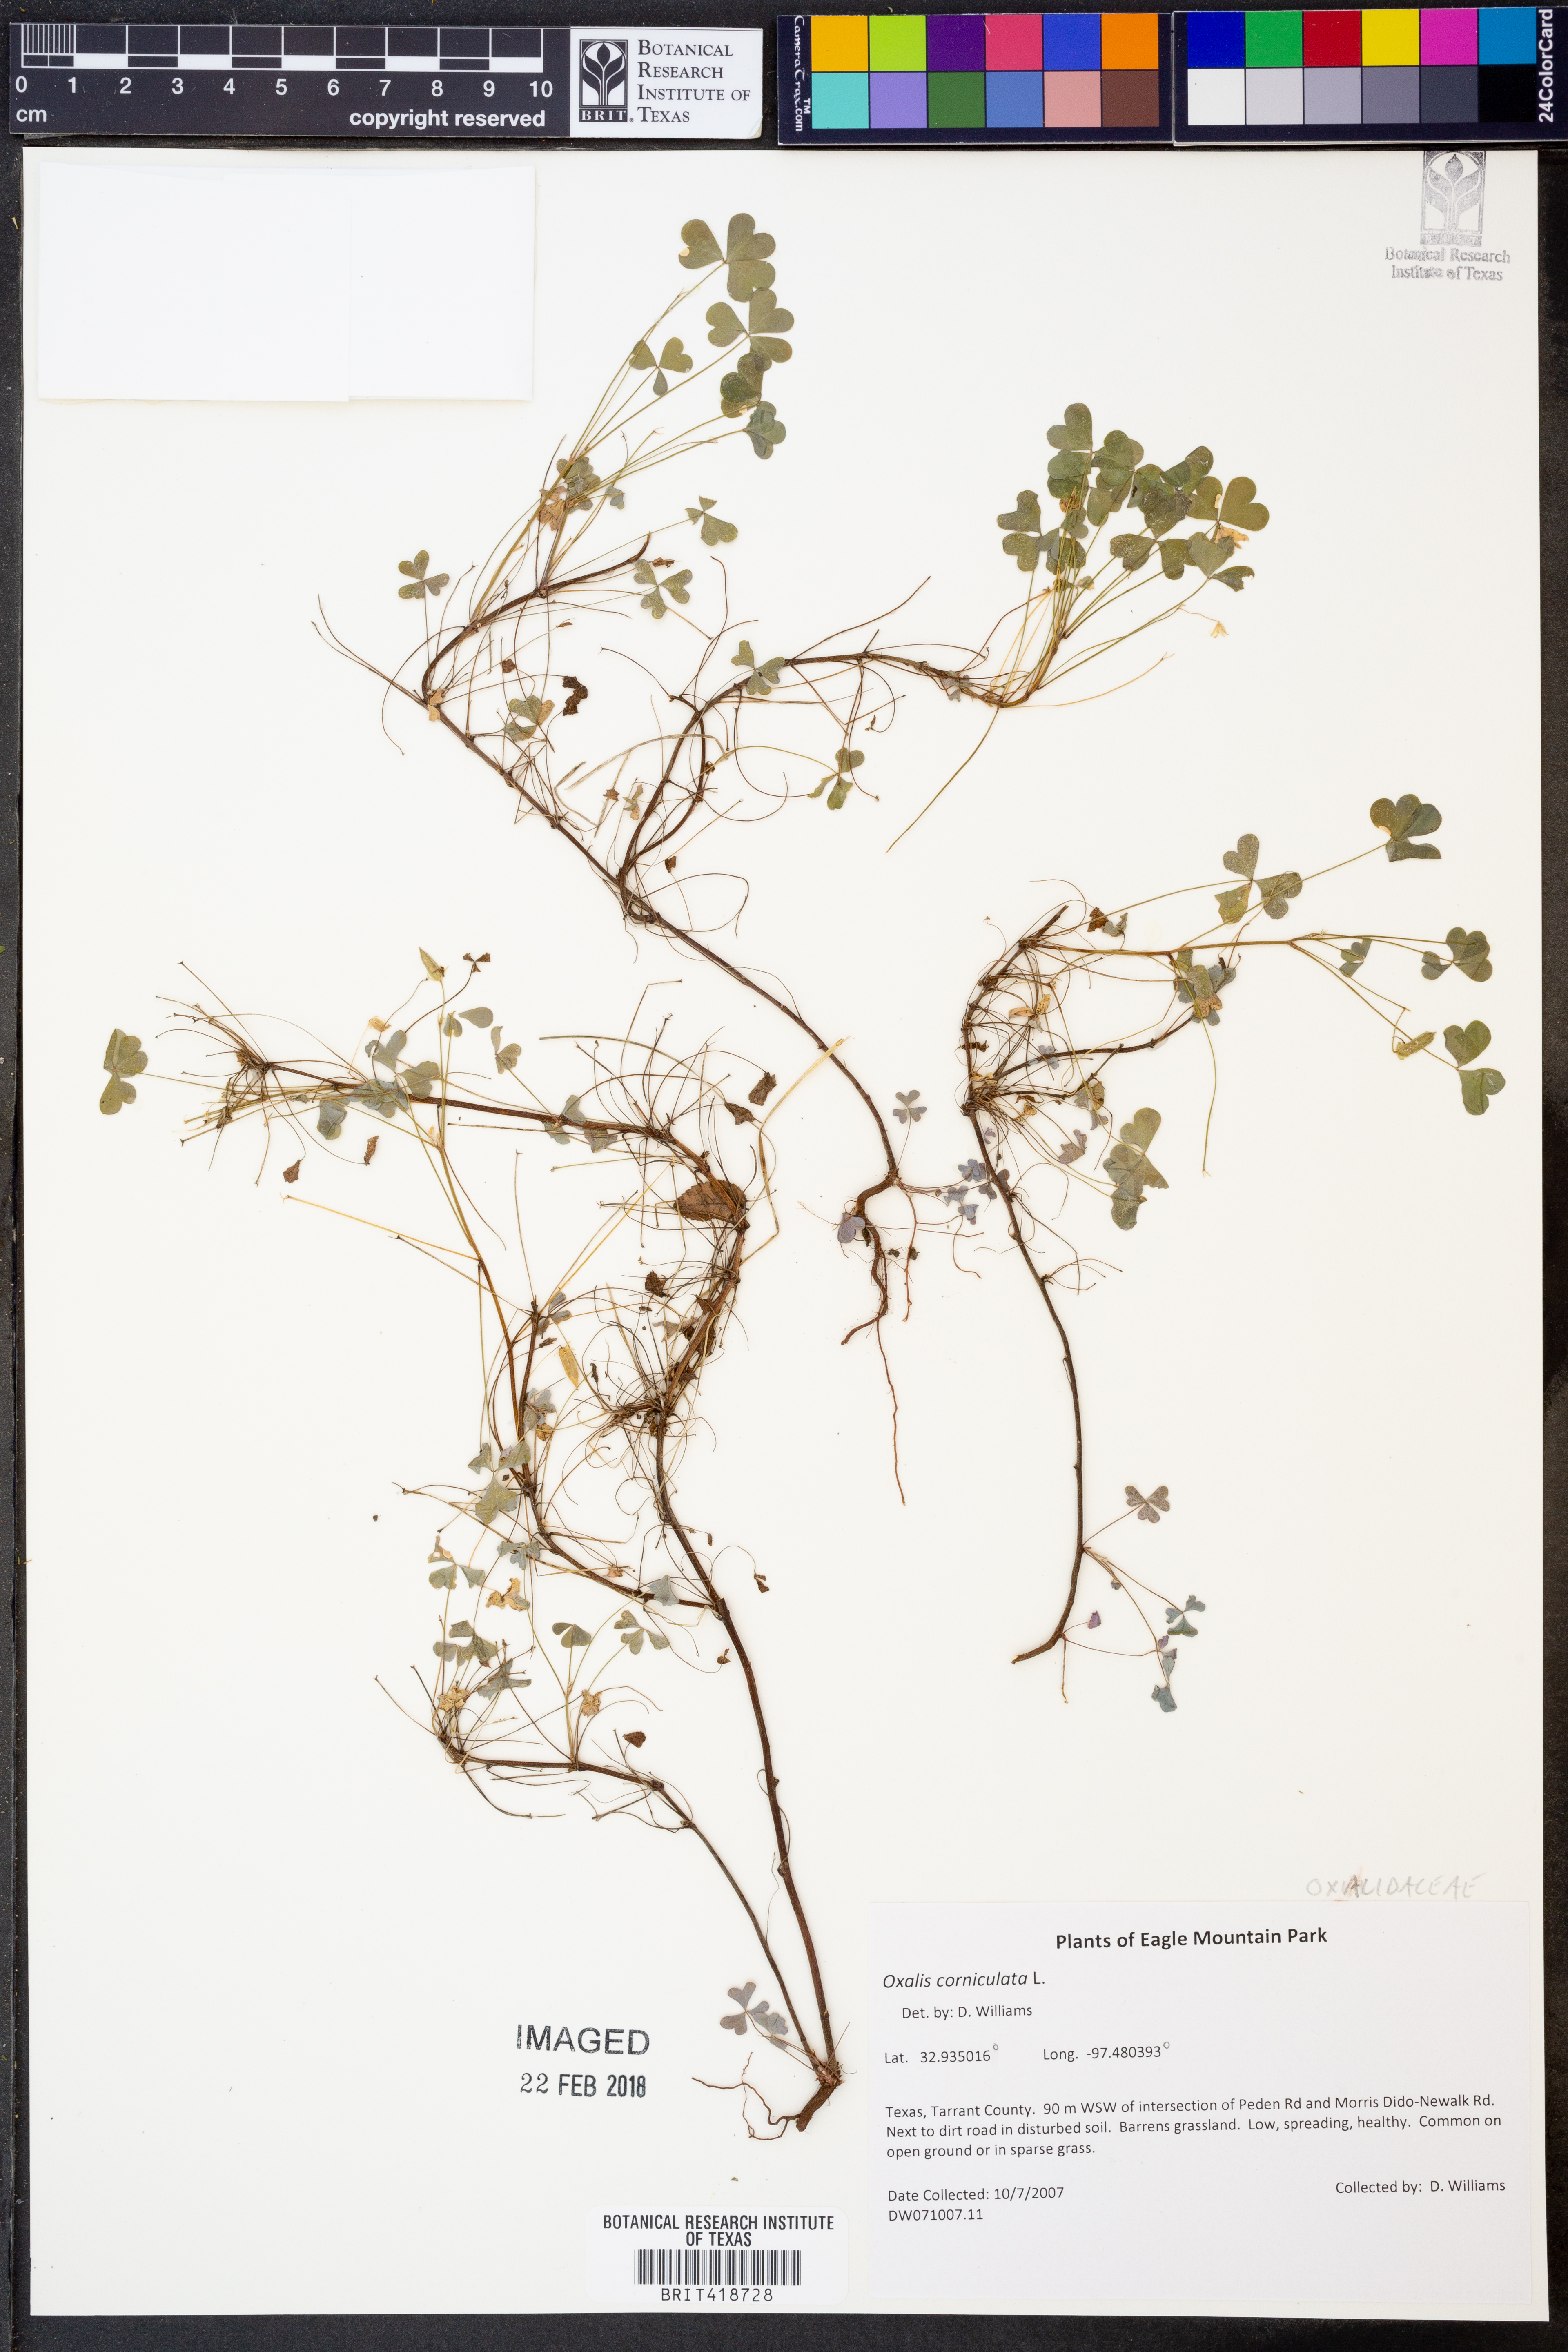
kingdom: Plantae
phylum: Tracheophyta
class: Magnoliopsida
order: Oxalidales
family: Oxalidaceae
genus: Oxalis
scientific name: Oxalis corniculata
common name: Procumbent yellow-sorrel
